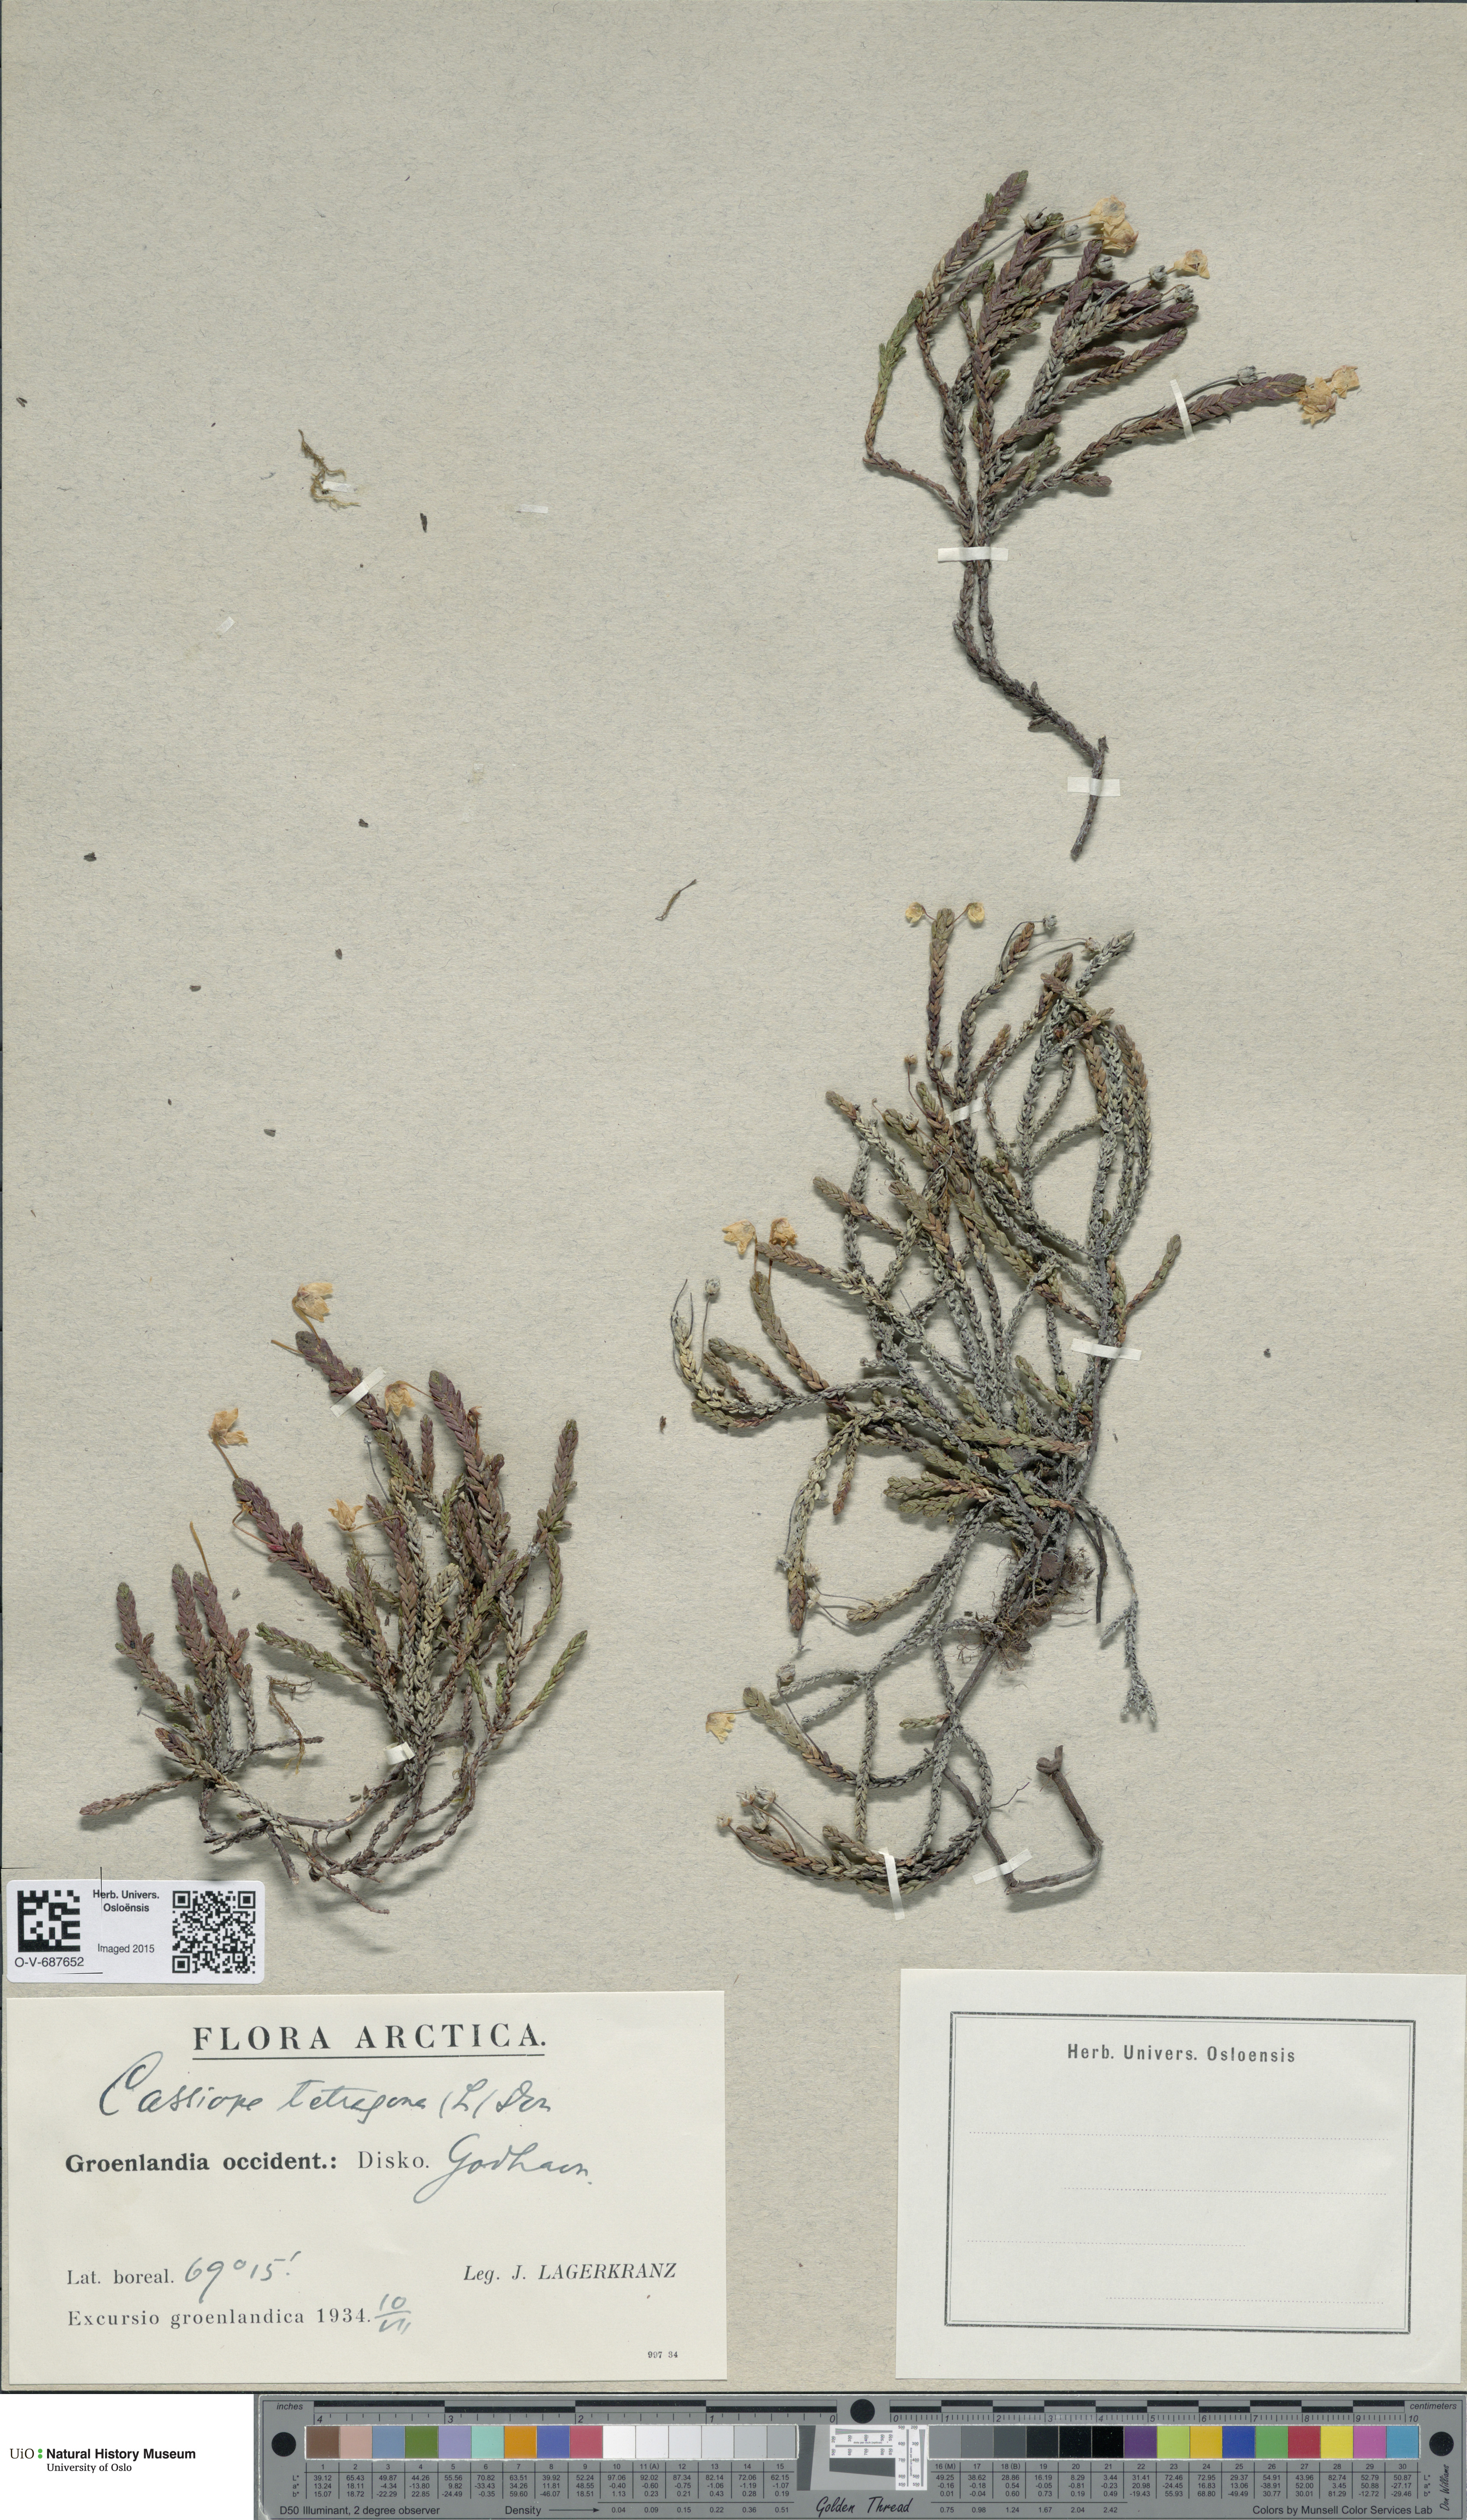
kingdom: Plantae
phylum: Tracheophyta
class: Magnoliopsida
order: Ericales
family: Ericaceae
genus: Cassiope
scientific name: Cassiope tetragona
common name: Arctic bell heather
